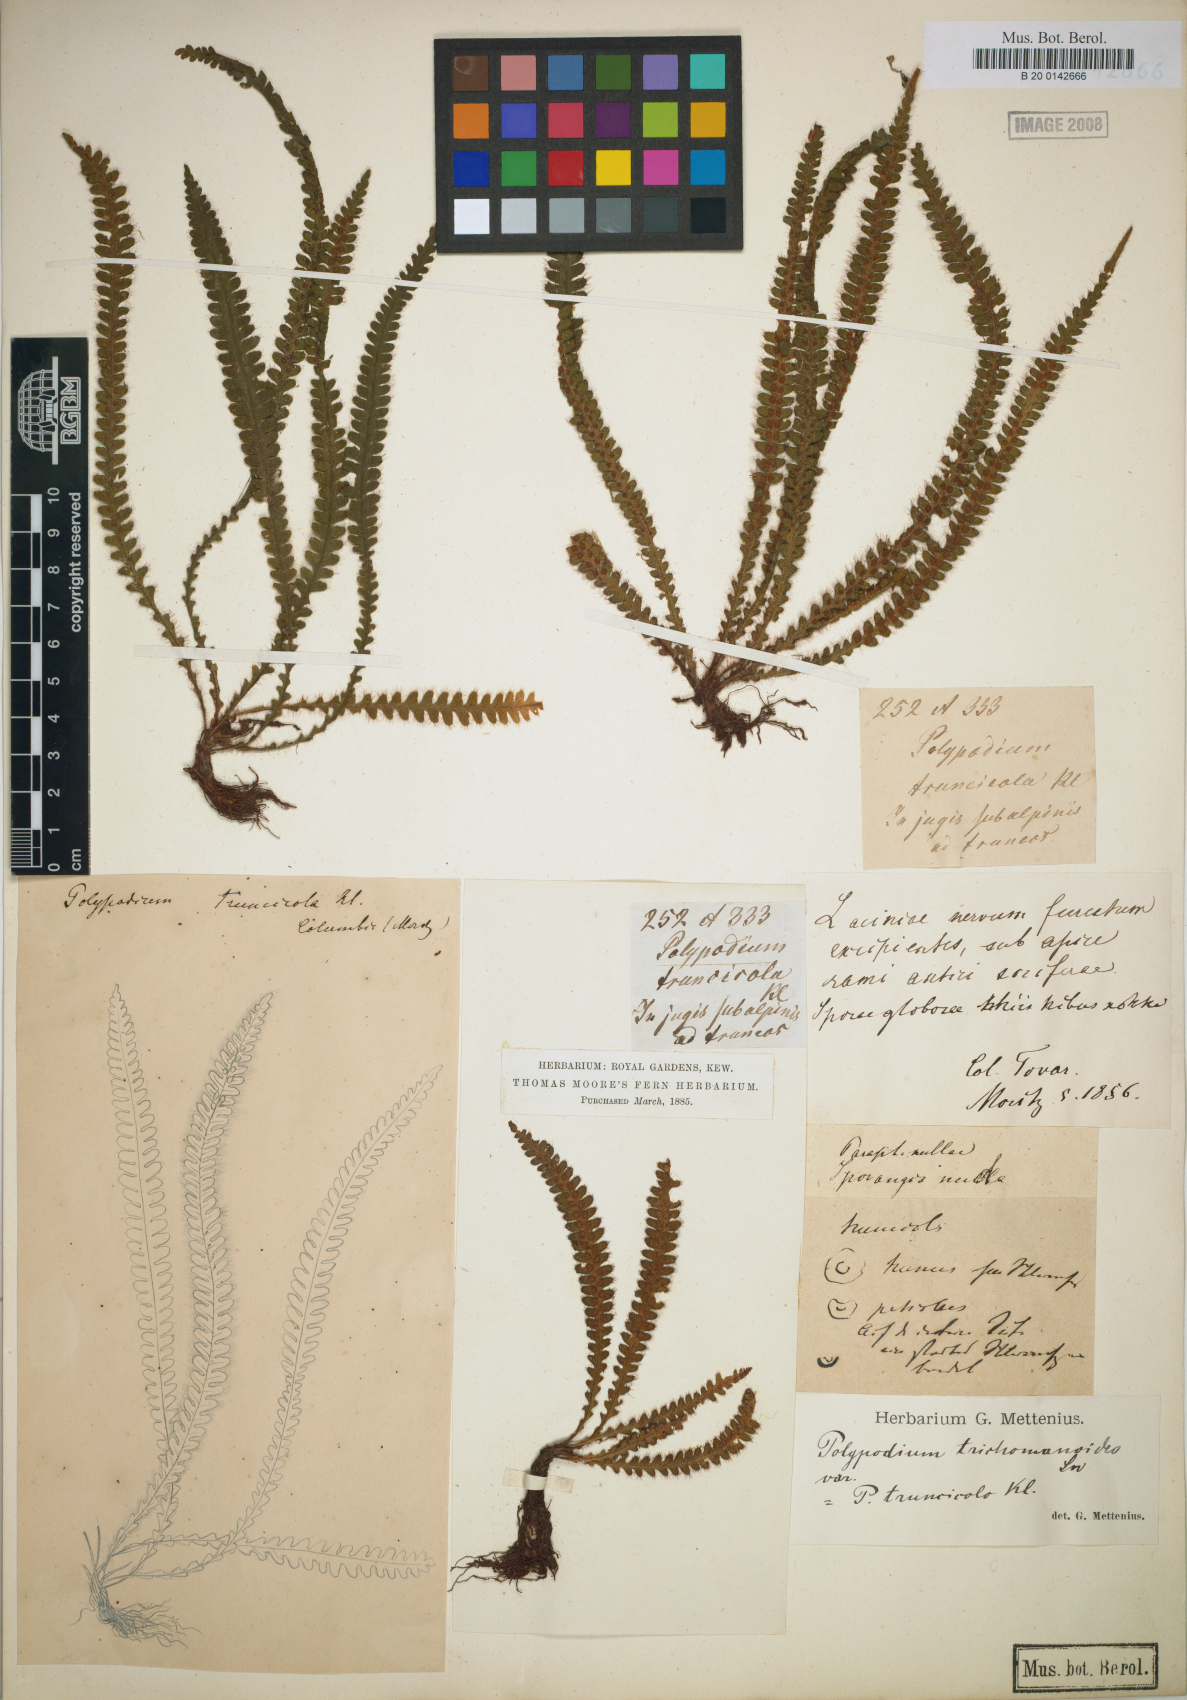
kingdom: Plantae
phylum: Tracheophyta
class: Polypodiopsida
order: Polypodiales
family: Polypodiaceae
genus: Moranopteris
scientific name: Moranopteris truncicola
